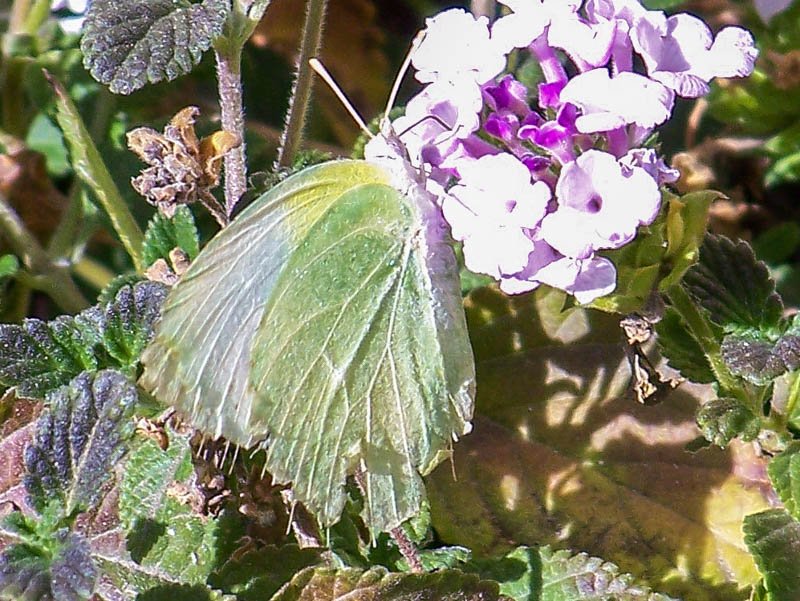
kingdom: Animalia
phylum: Arthropoda
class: Insecta
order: Lepidoptera
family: Pieridae
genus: Kricogonia
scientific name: Kricogonia lyside
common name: Lyside Sulphur
